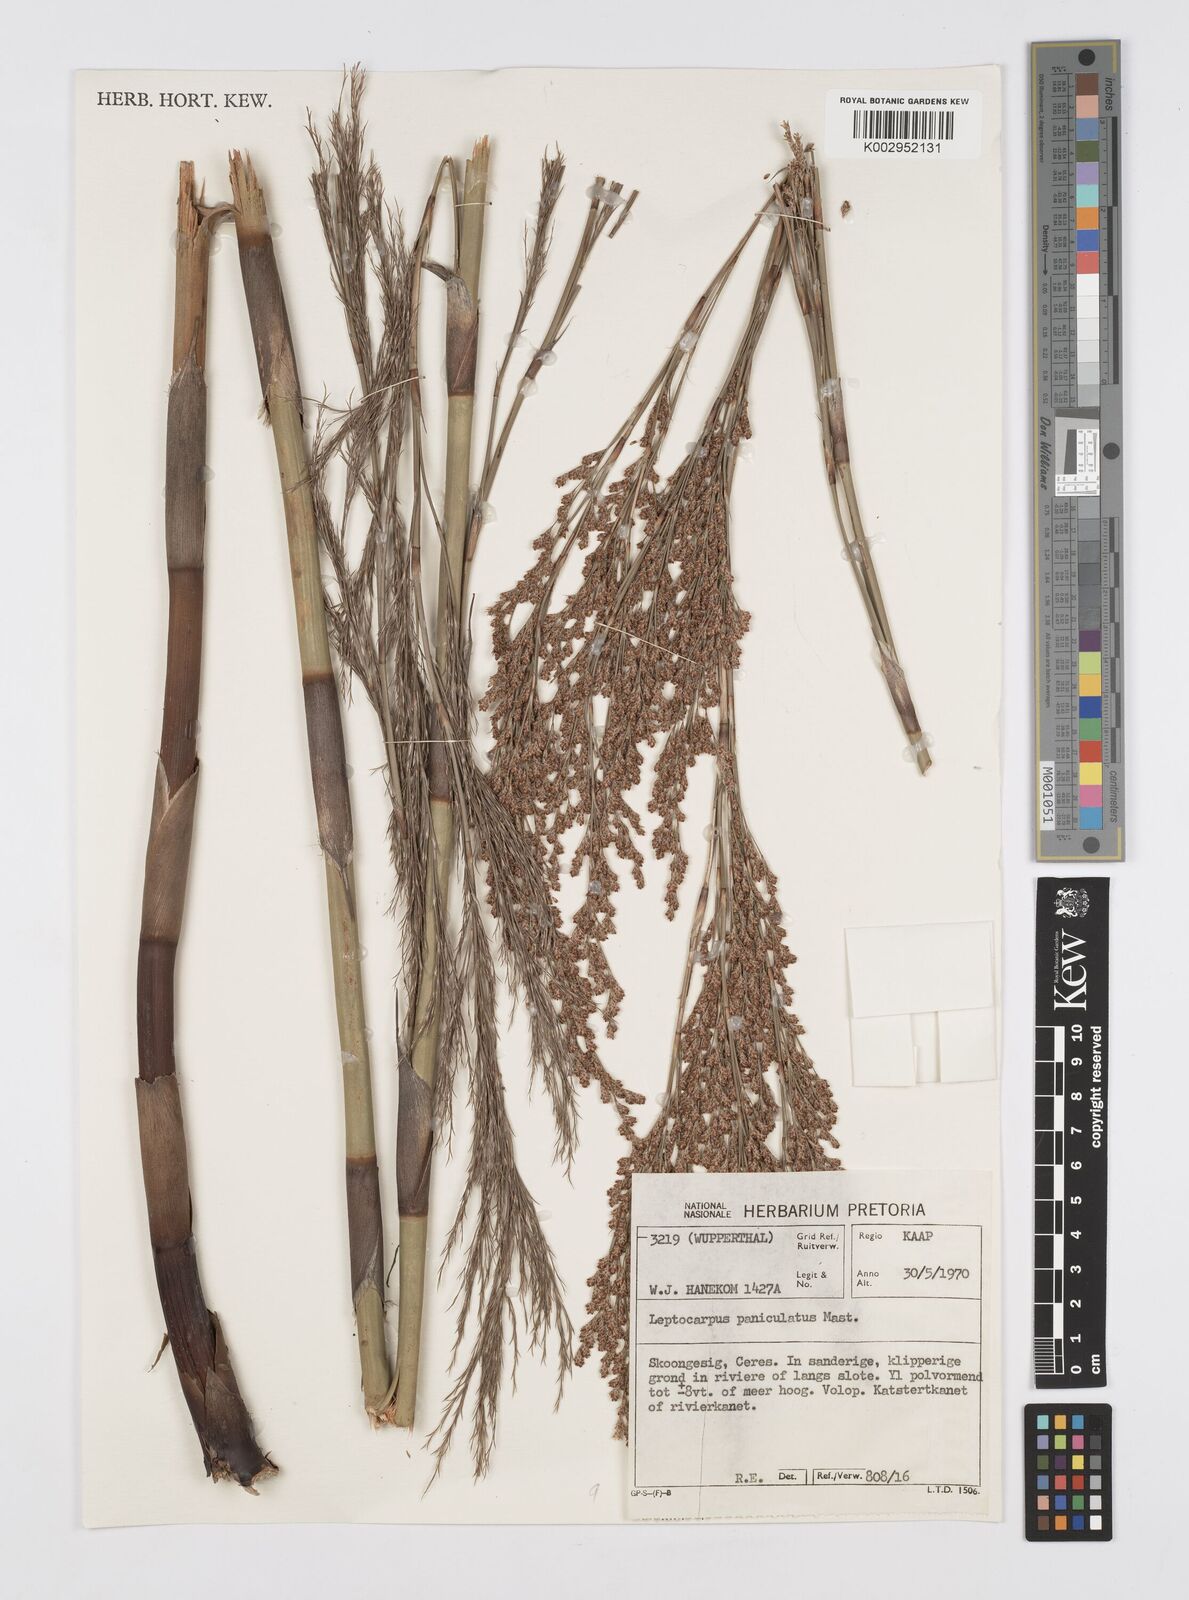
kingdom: Plantae
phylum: Tracheophyta
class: Liliopsida
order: Poales
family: Restionaceae
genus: Restio
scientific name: Restio paniculatus
